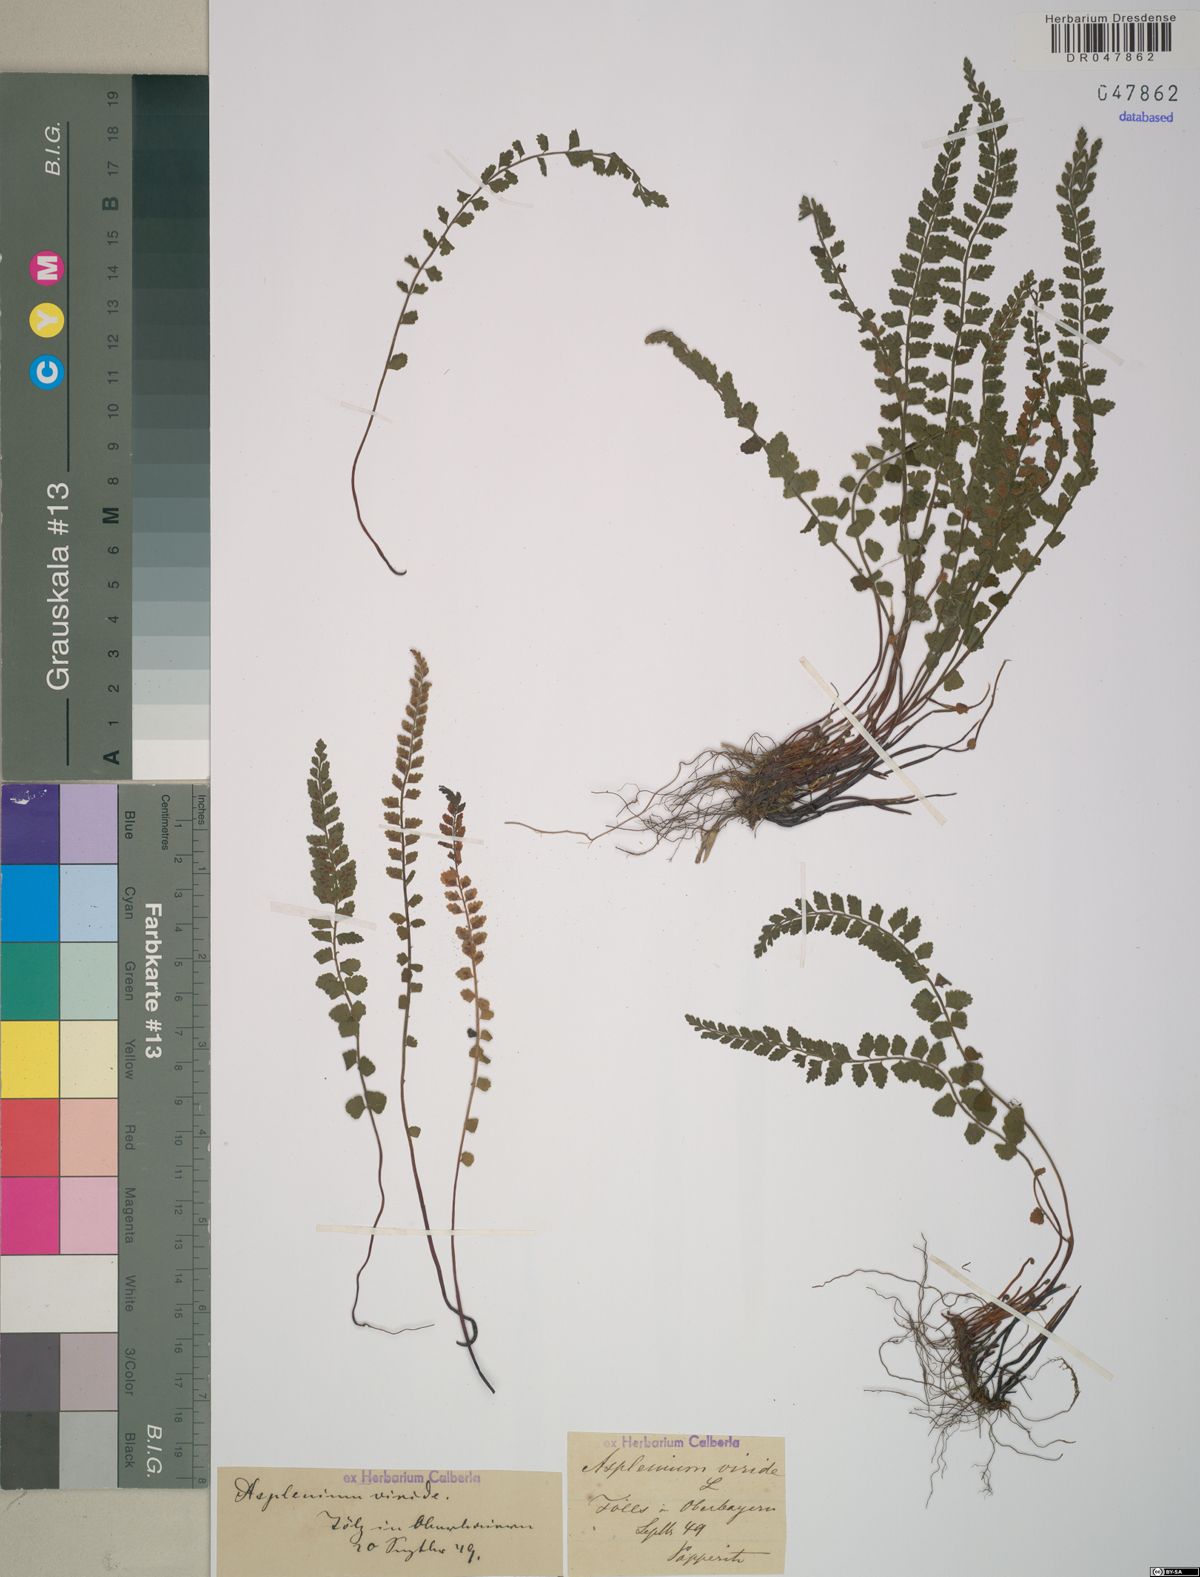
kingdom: Plantae
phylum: Tracheophyta
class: Polypodiopsida
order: Polypodiales
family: Aspleniaceae
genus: Asplenium
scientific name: Asplenium viride
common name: Green spleenwort
